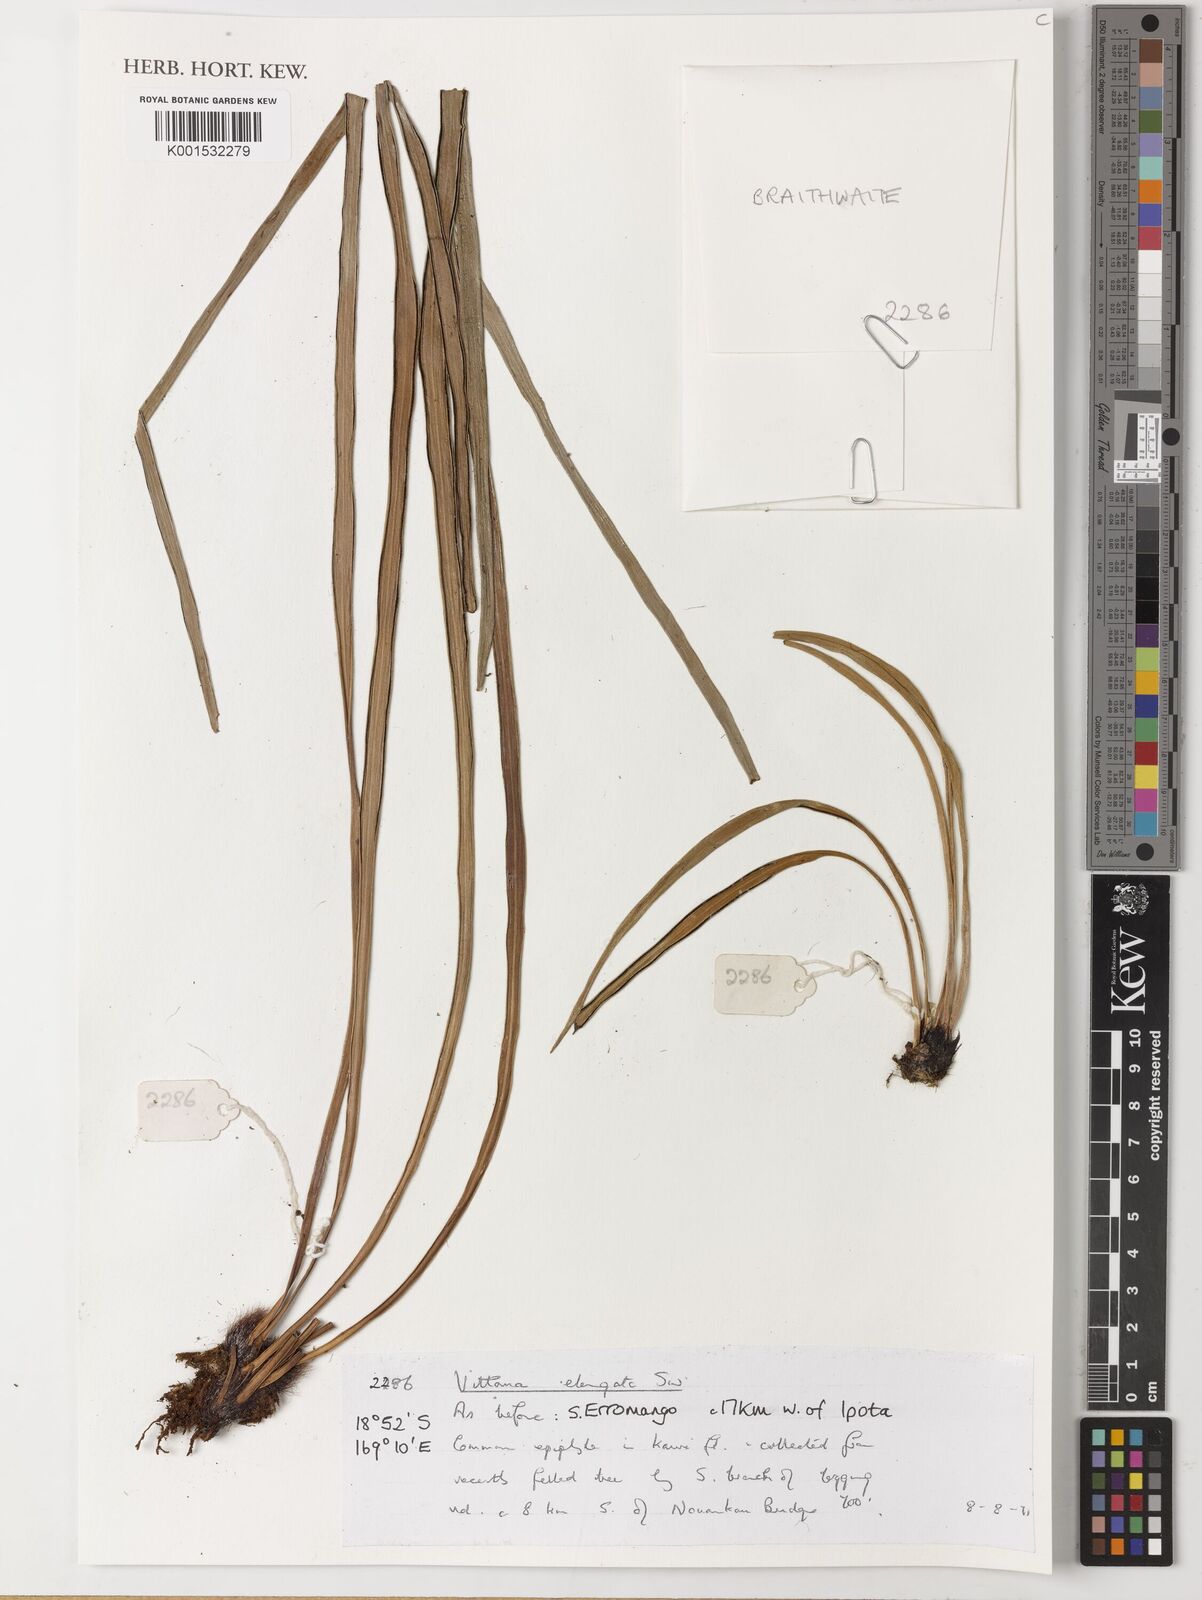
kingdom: Plantae
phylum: Tracheophyta
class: Polypodiopsida
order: Polypodiales
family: Pteridaceae
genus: Haplopteris
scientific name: Haplopteris elongata
